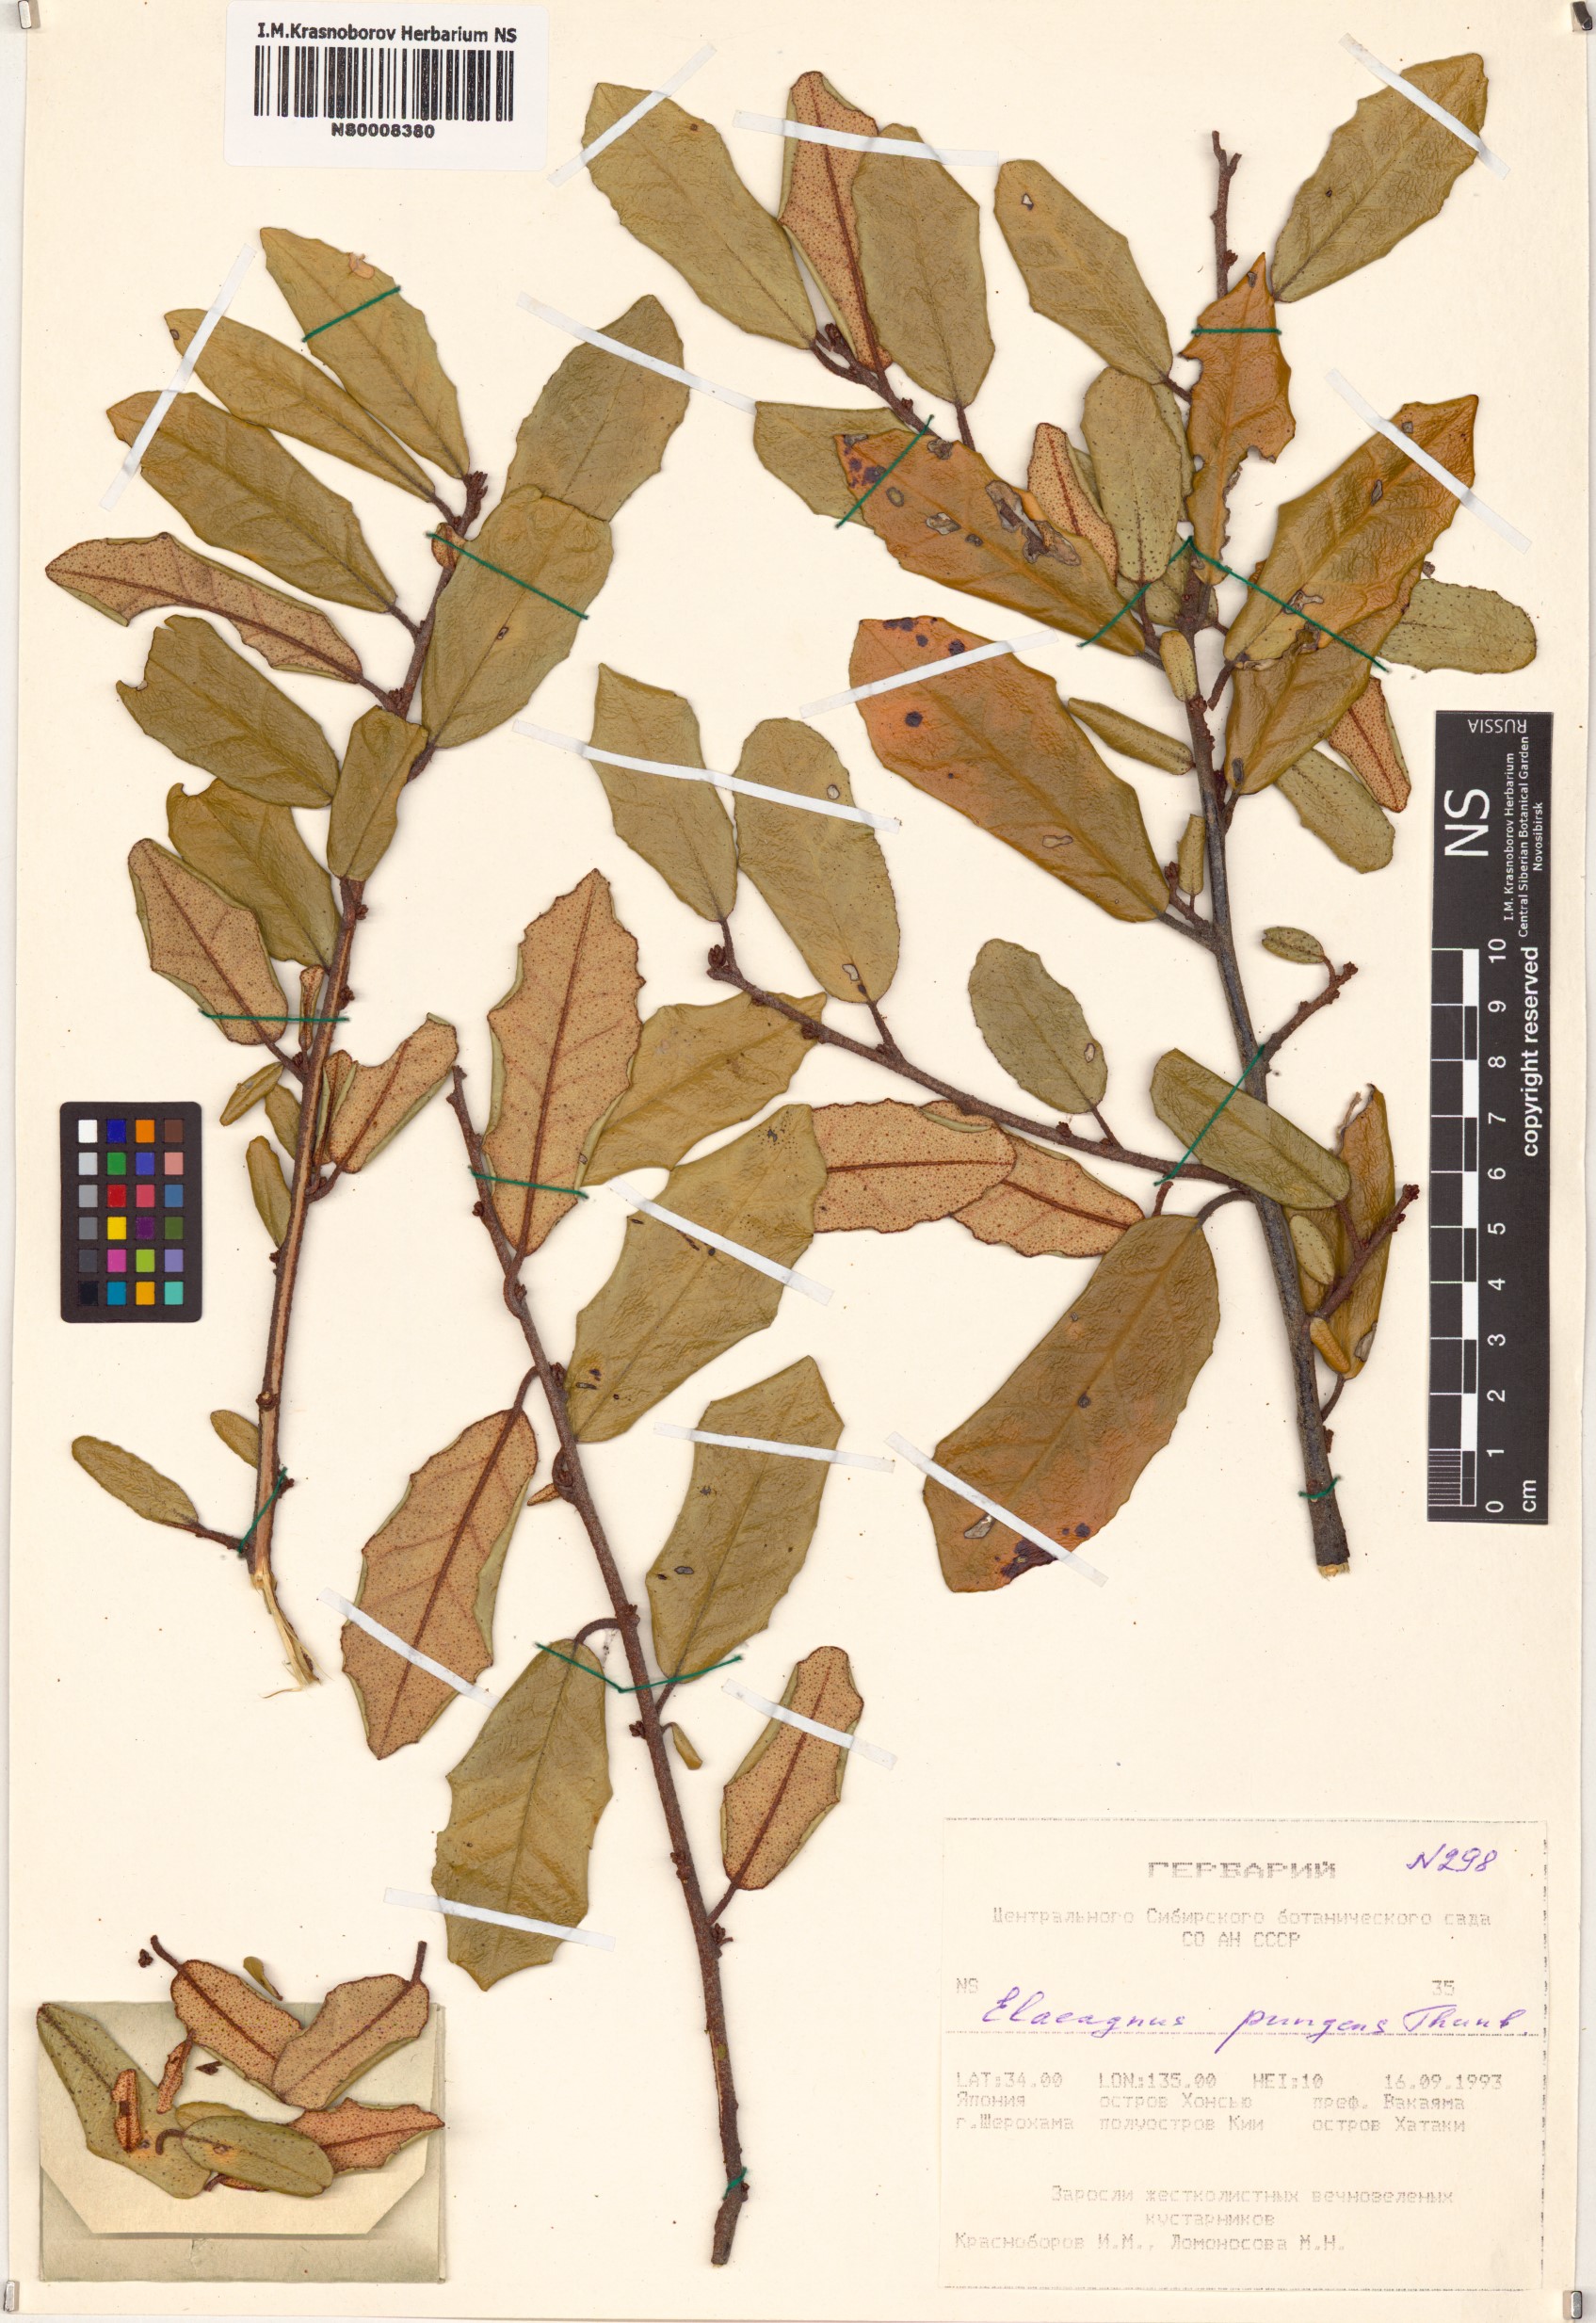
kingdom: Plantae
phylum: Tracheophyta
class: Magnoliopsida
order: Rosales
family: Elaeagnaceae
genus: Elaeagnus
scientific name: Elaeagnus pungens
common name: Spiny oleaster
